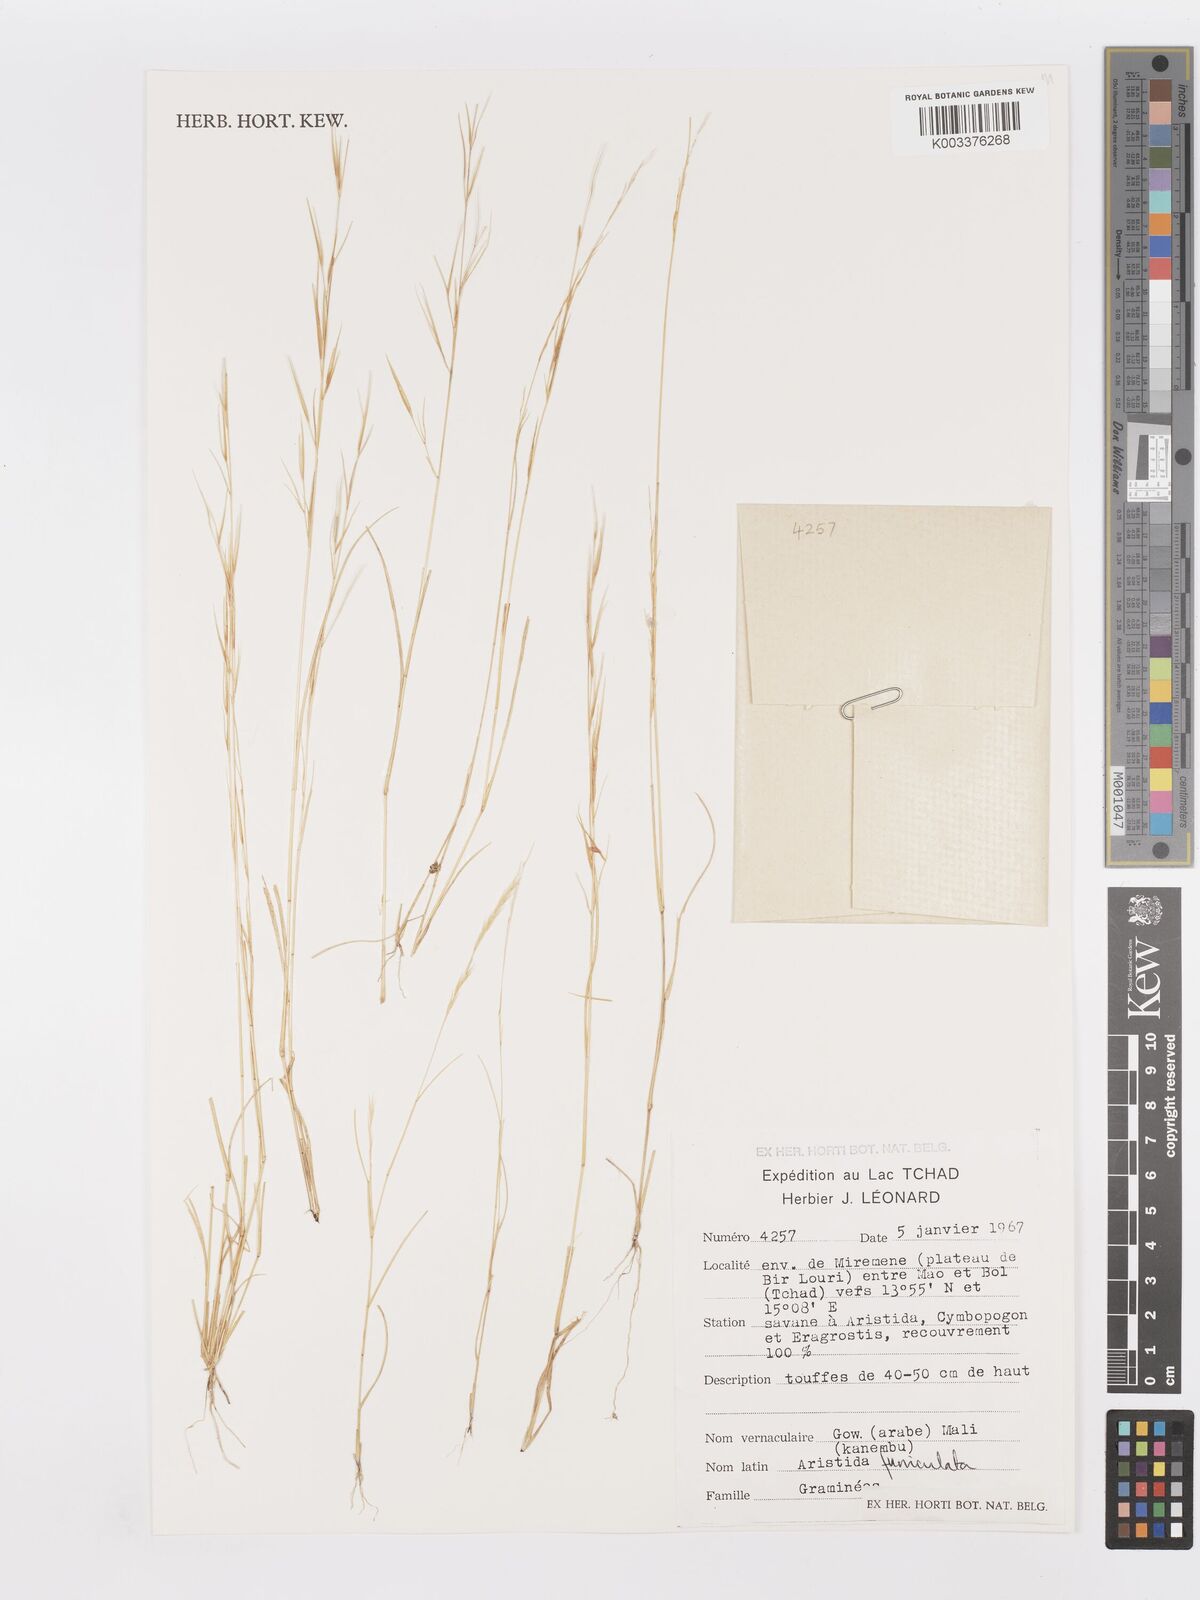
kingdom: Plantae
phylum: Tracheophyta
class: Liliopsida
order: Poales
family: Poaceae
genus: Aristida
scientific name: Aristida funiculata
